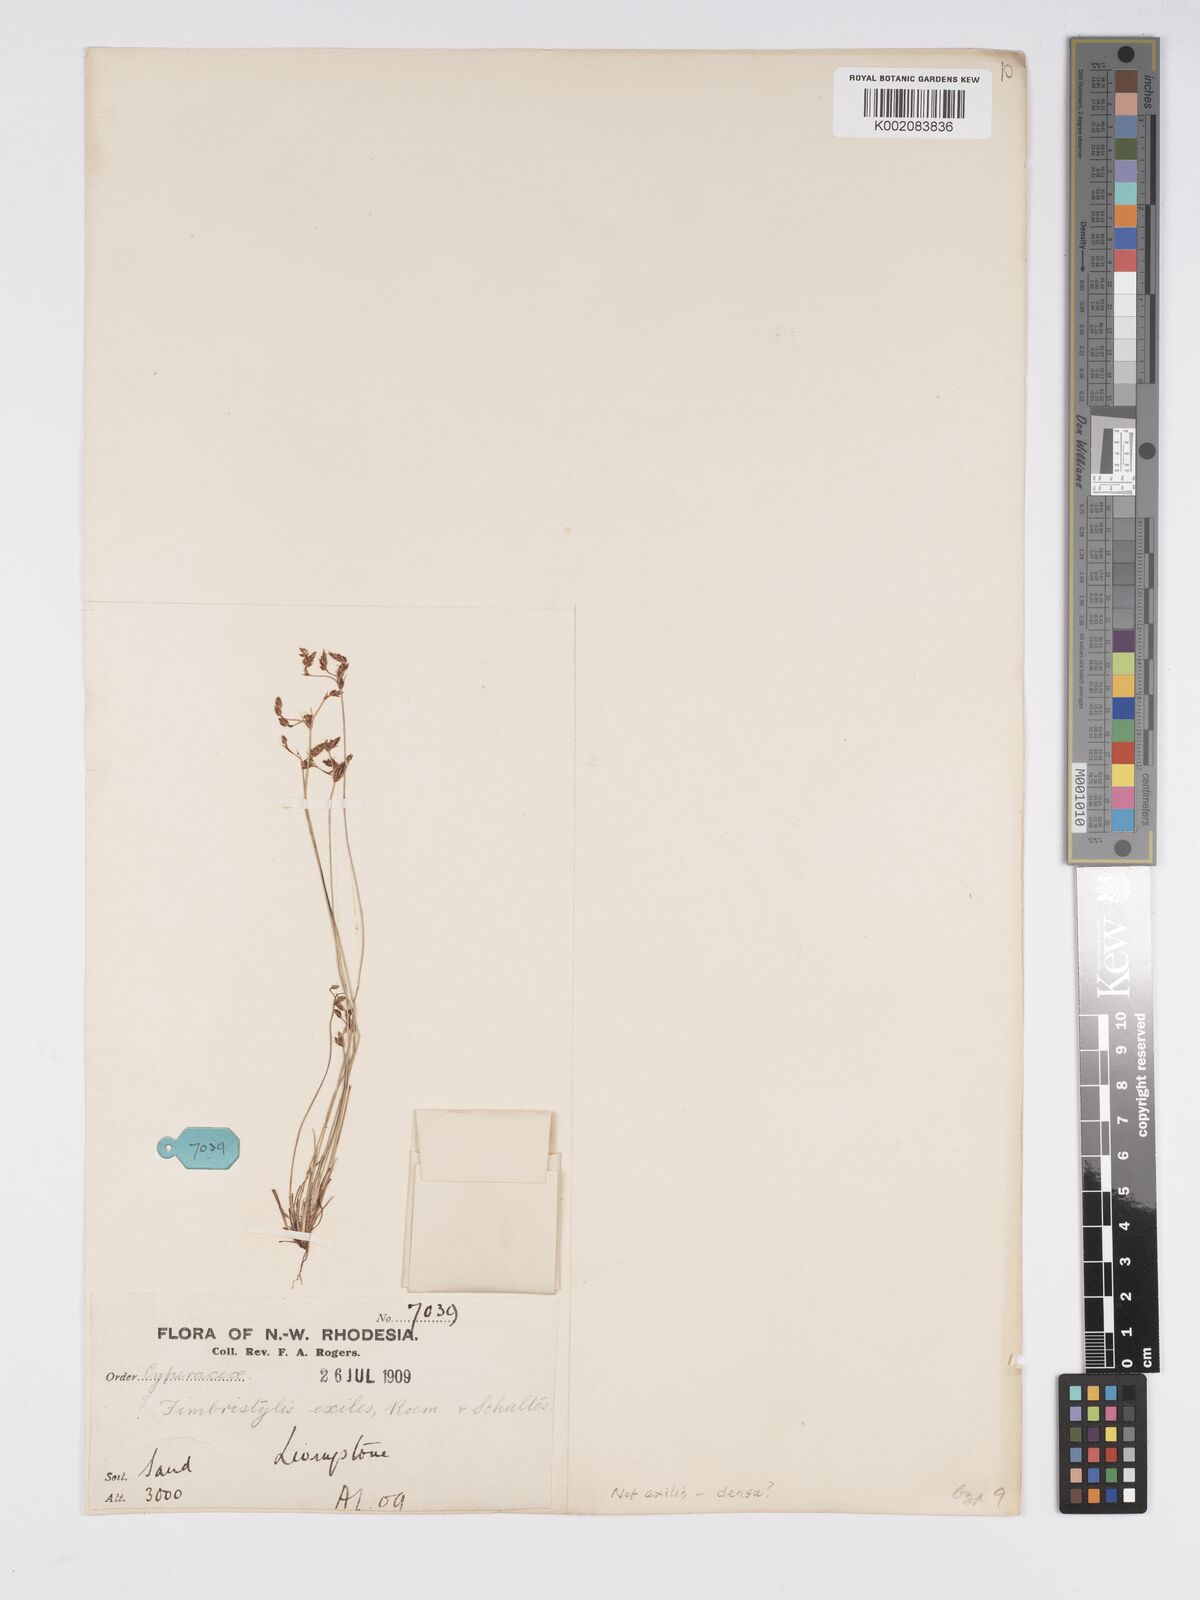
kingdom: Plantae
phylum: Tracheophyta
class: Liliopsida
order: Poales
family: Cyperaceae
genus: Bulbostylis
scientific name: Bulbostylis hispidula
